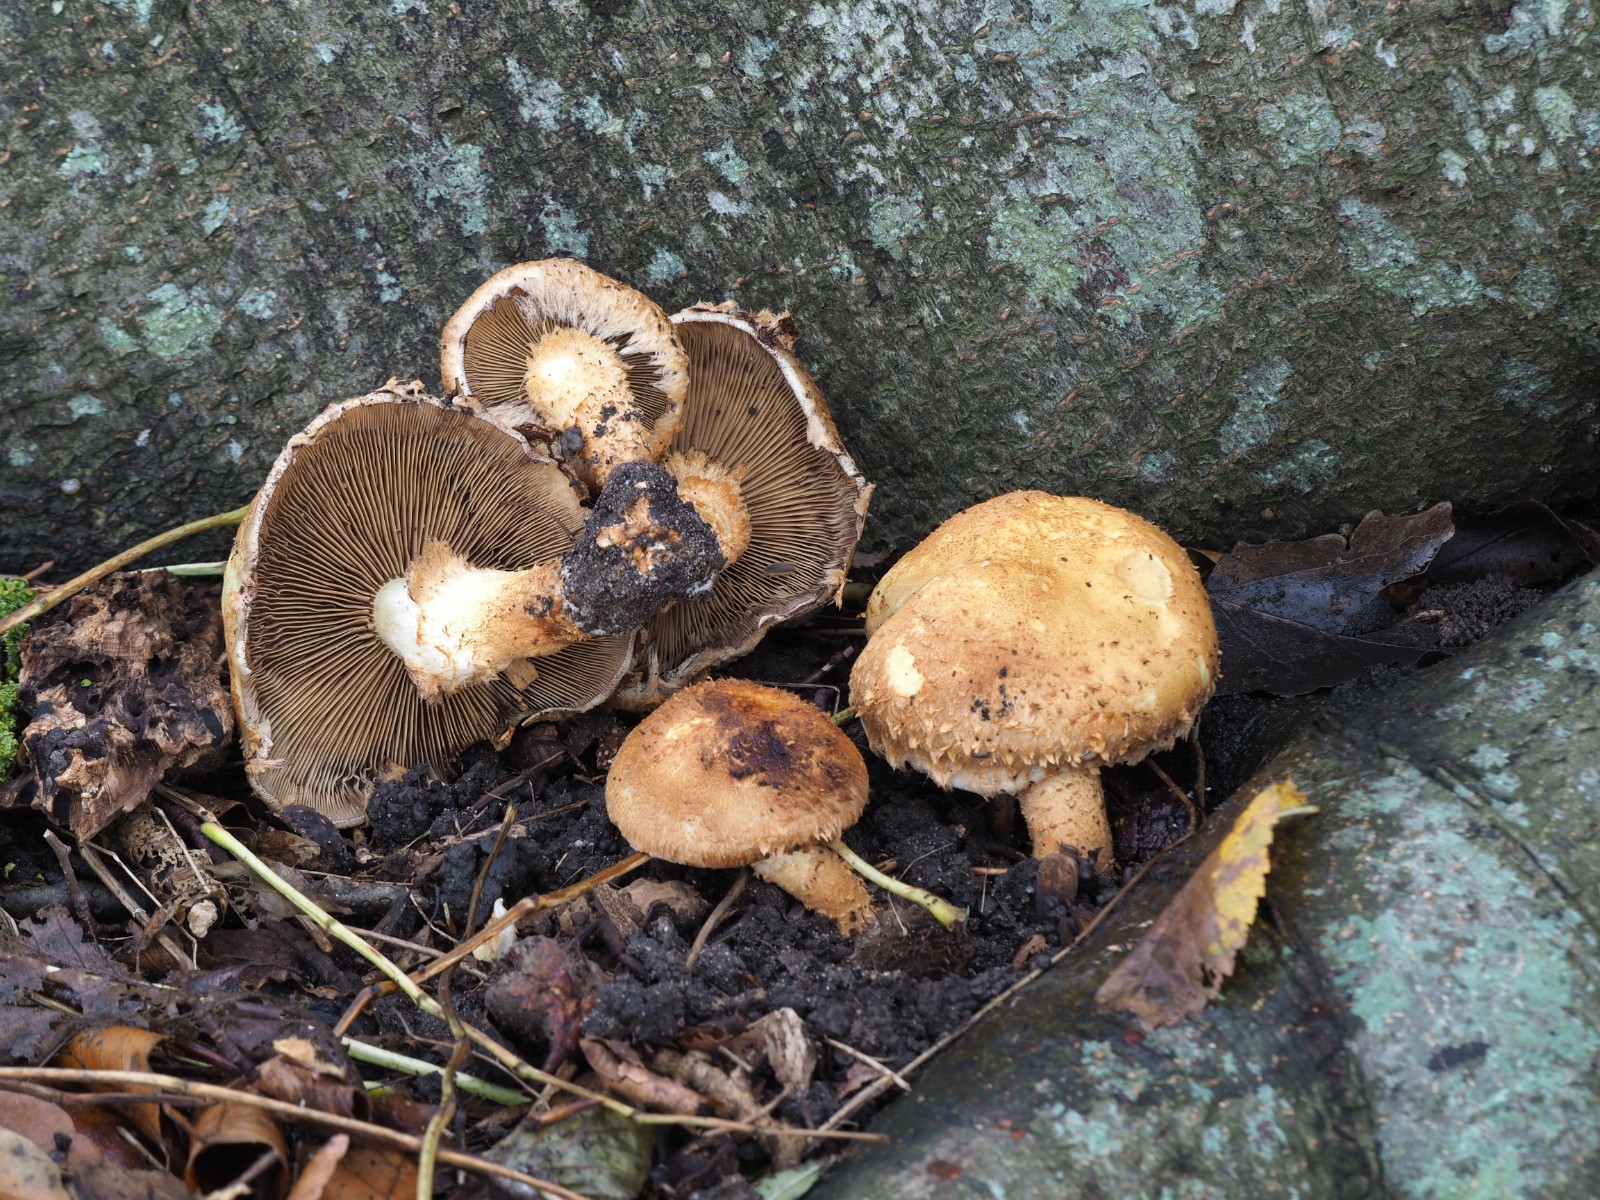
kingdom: Fungi
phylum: Basidiomycota
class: Agaricomycetes
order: Agaricales
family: Strophariaceae
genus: Pholiota
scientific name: Pholiota squarrosa
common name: krumskællet skælhat
